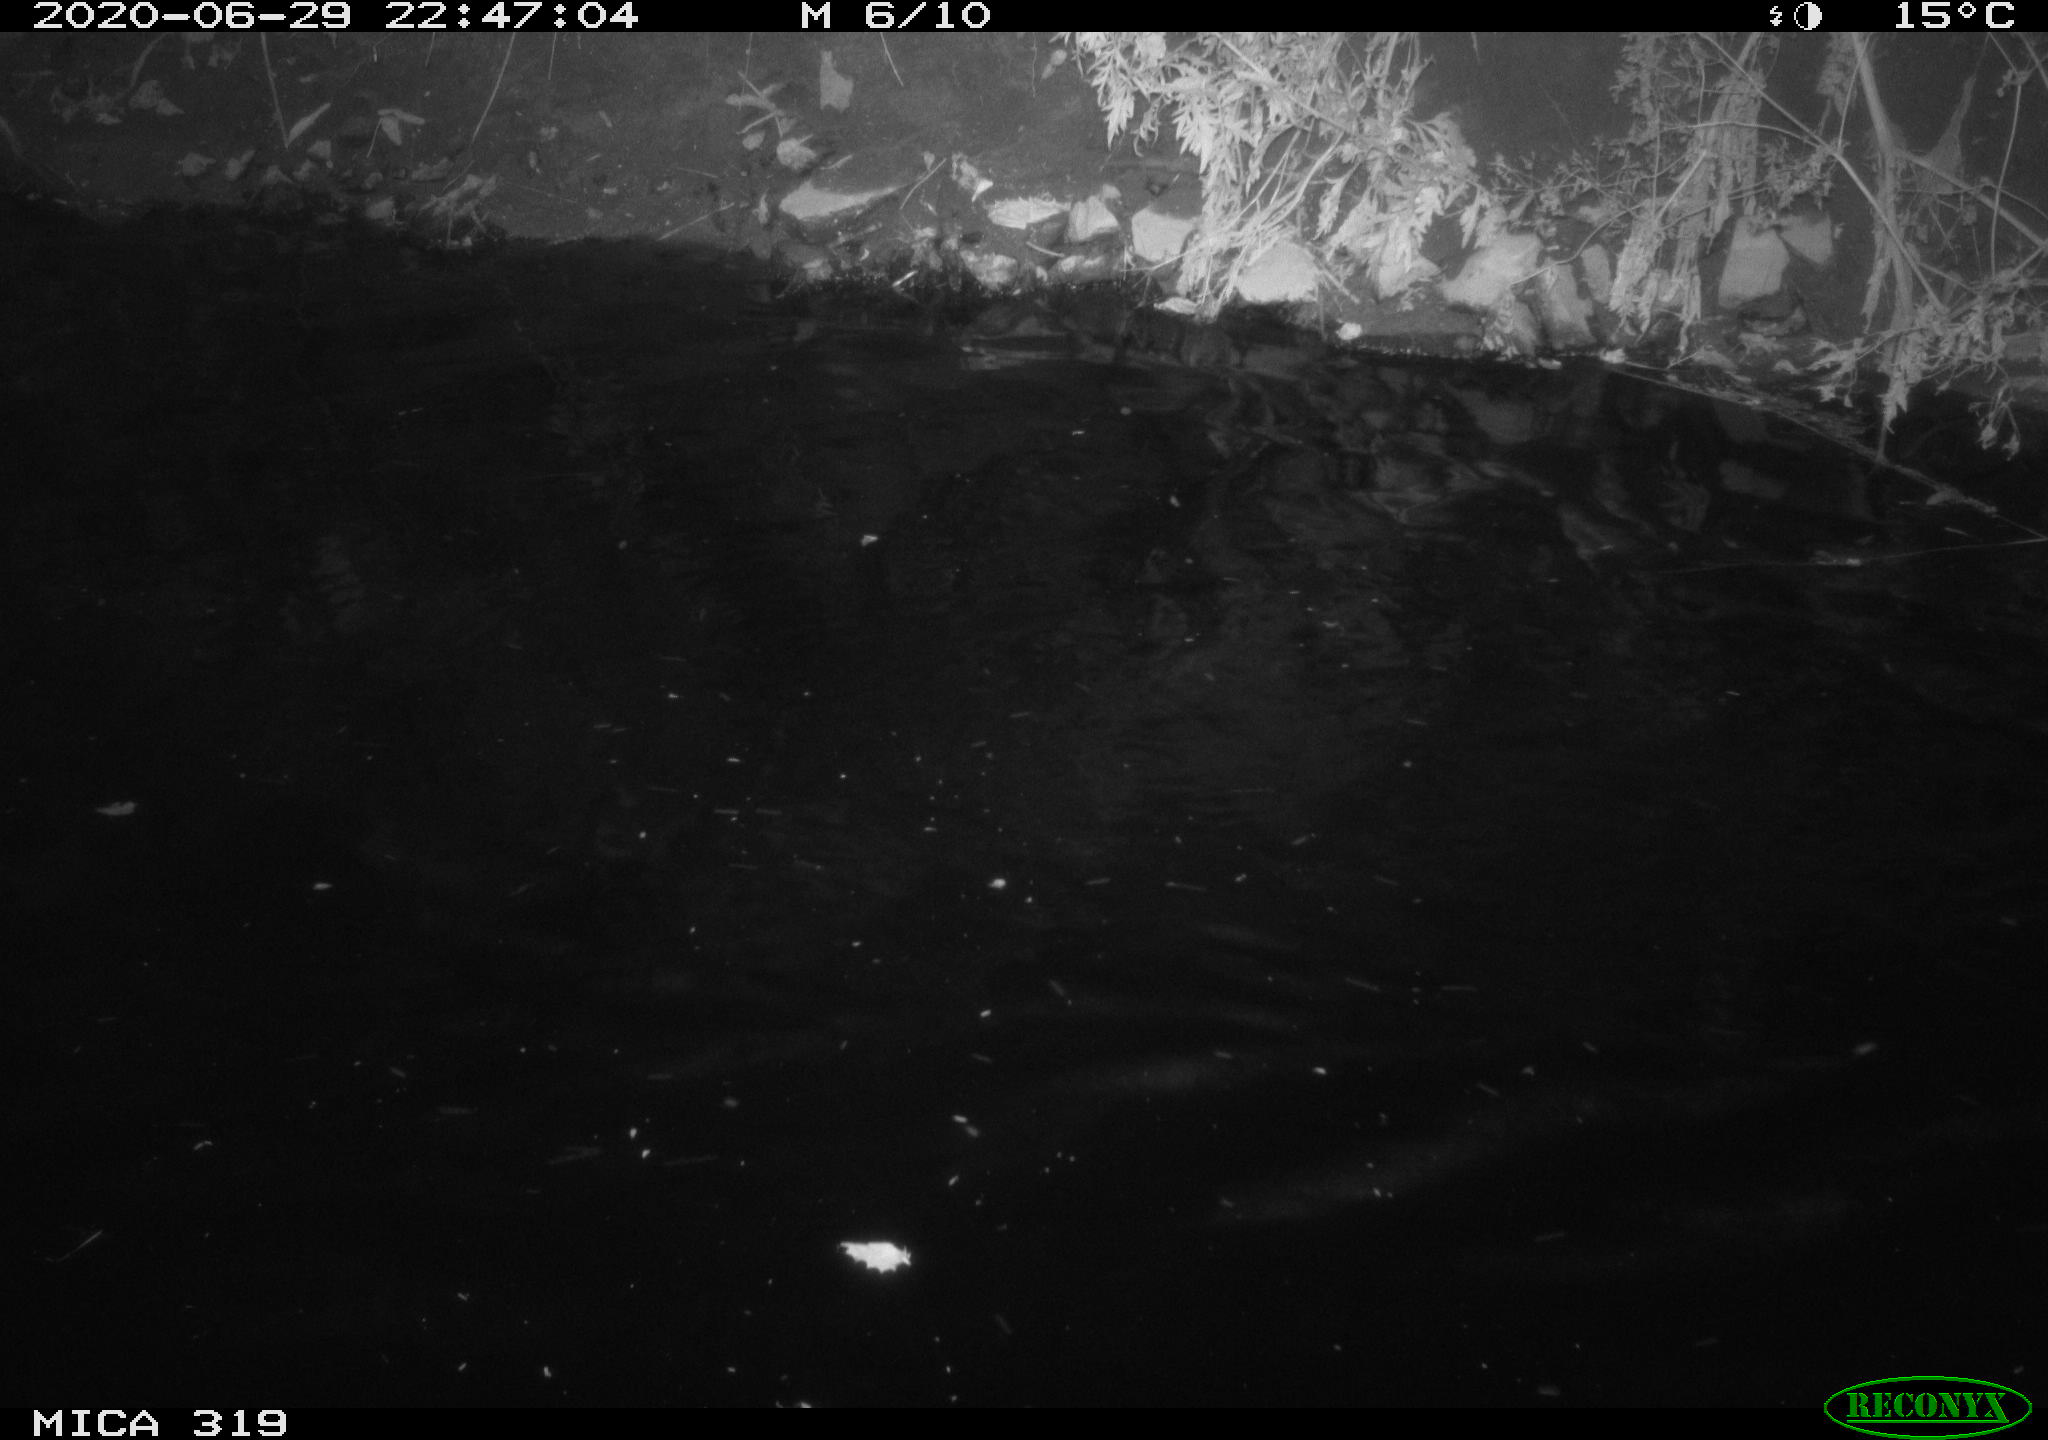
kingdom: Animalia
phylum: Chordata
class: Aves
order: Anseriformes
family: Anatidae
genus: Anas
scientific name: Anas platyrhynchos
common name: Mallard
